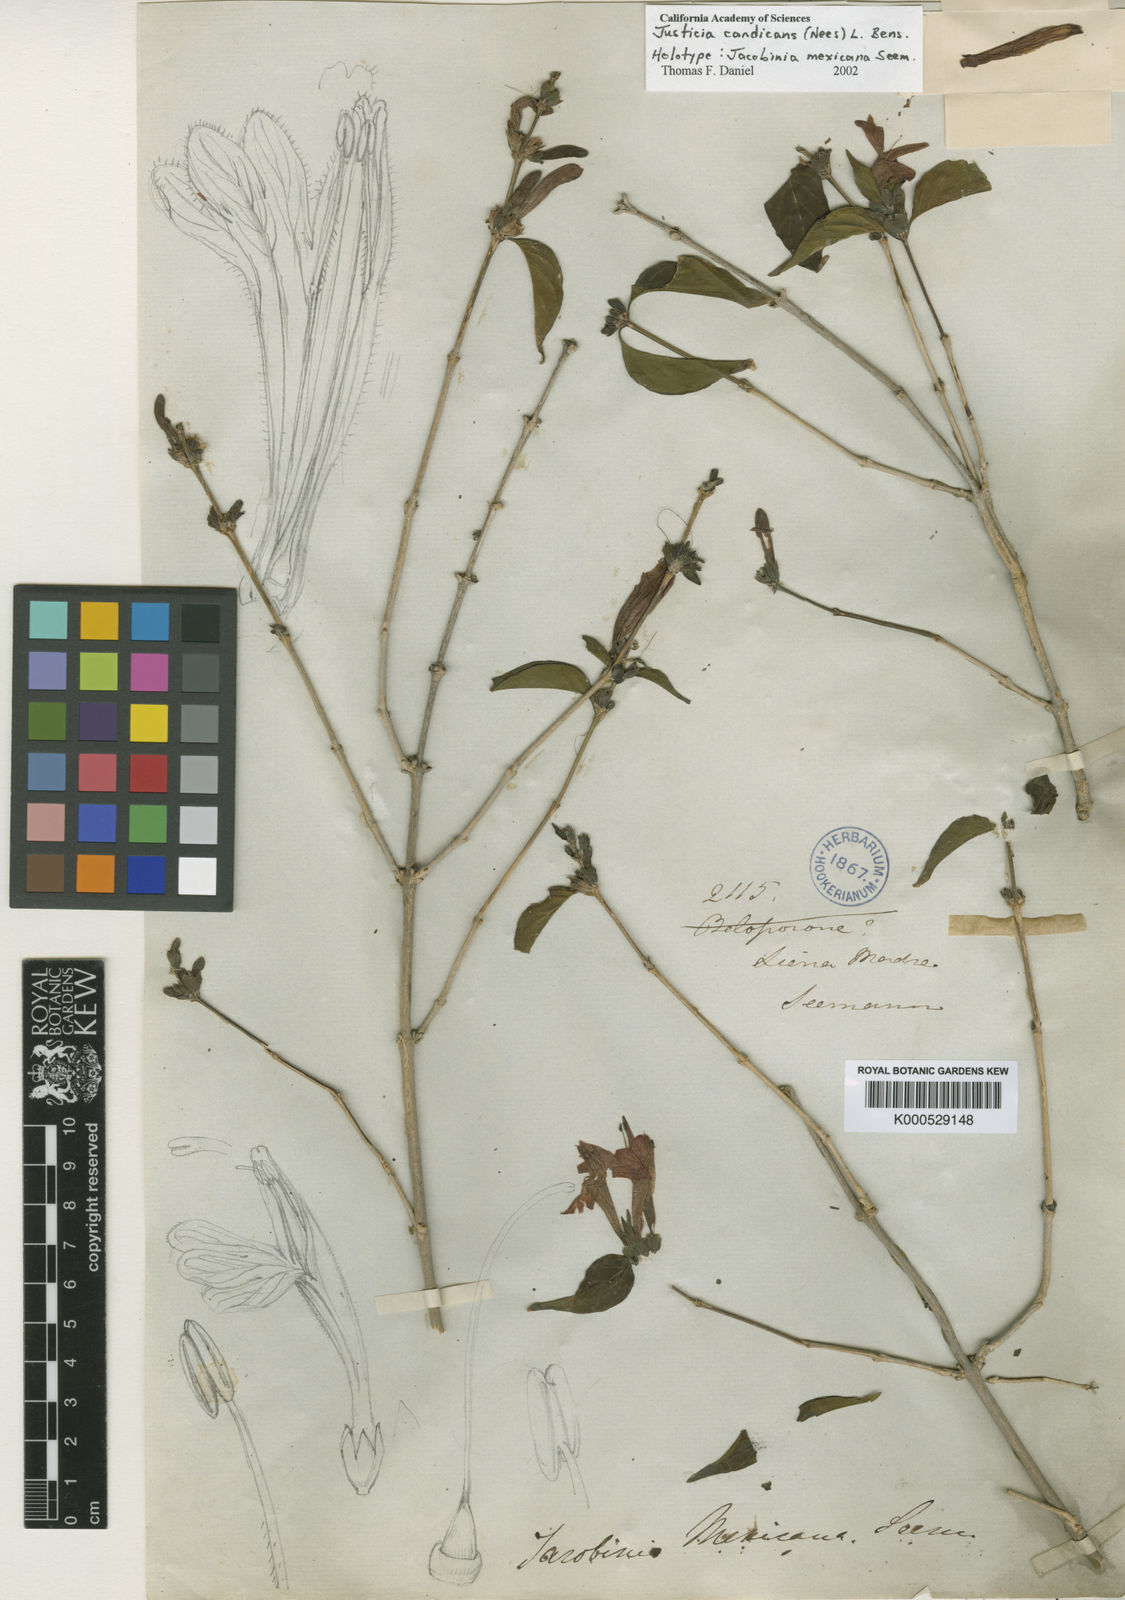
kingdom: Plantae
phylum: Tracheophyta
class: Magnoliopsida
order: Lamiales
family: Acanthaceae
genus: Dianthera
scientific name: Dianthera candicans
